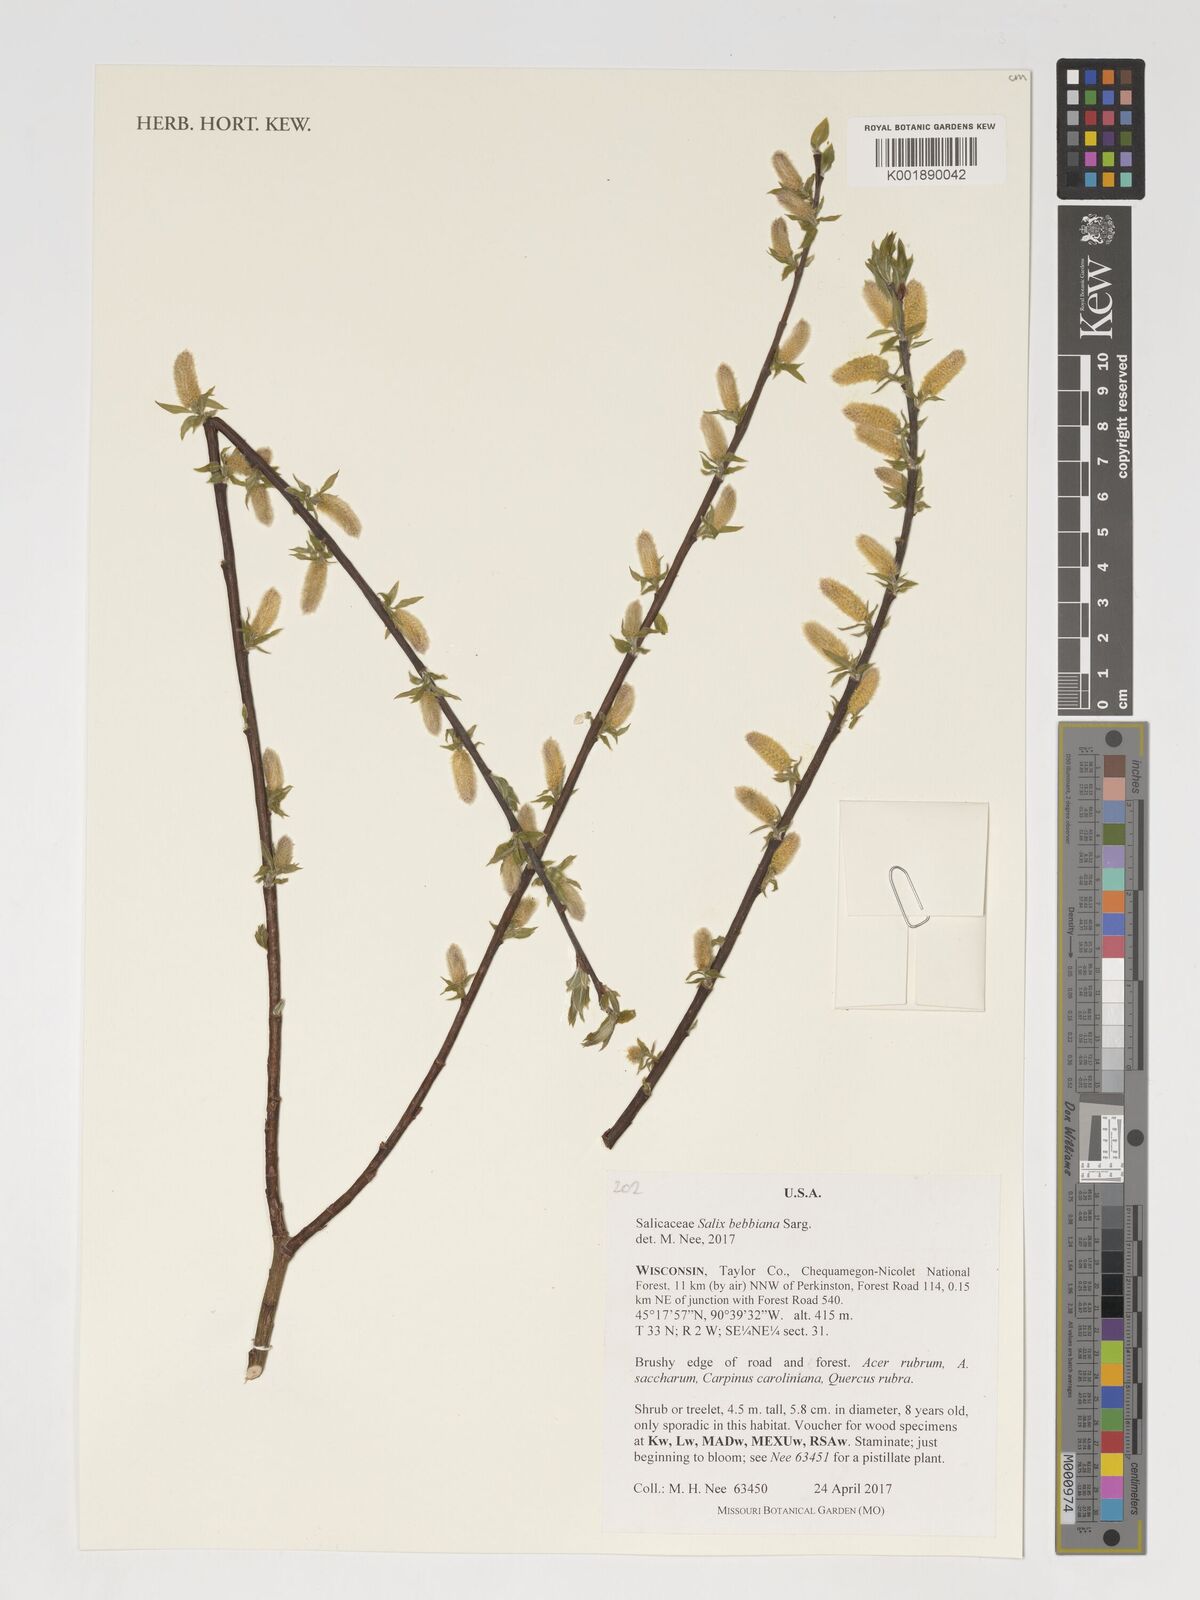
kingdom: Plantae
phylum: Tracheophyta
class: Magnoliopsida
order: Malpighiales
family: Salicaceae
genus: Salix
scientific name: Salix bebbiana
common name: Bebb's willow
